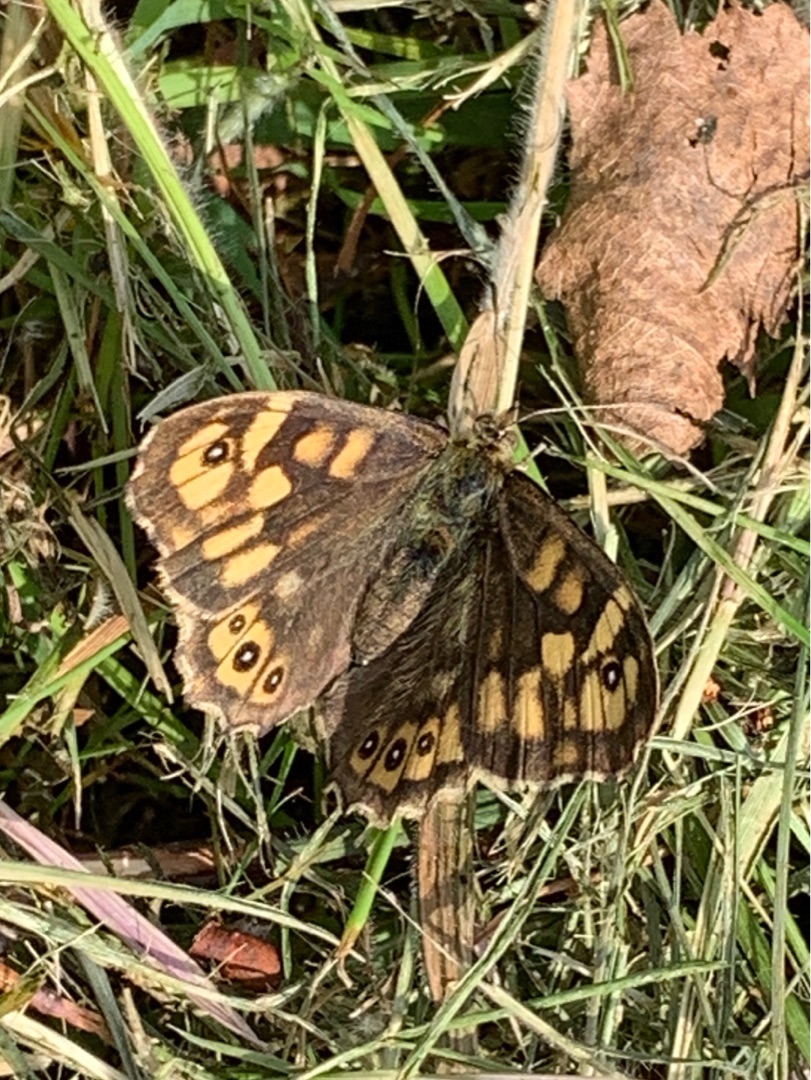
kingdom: Animalia
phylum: Arthropoda
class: Insecta
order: Lepidoptera
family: Nymphalidae
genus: Pararge
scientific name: Pararge aegeria
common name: Skovrandøje
